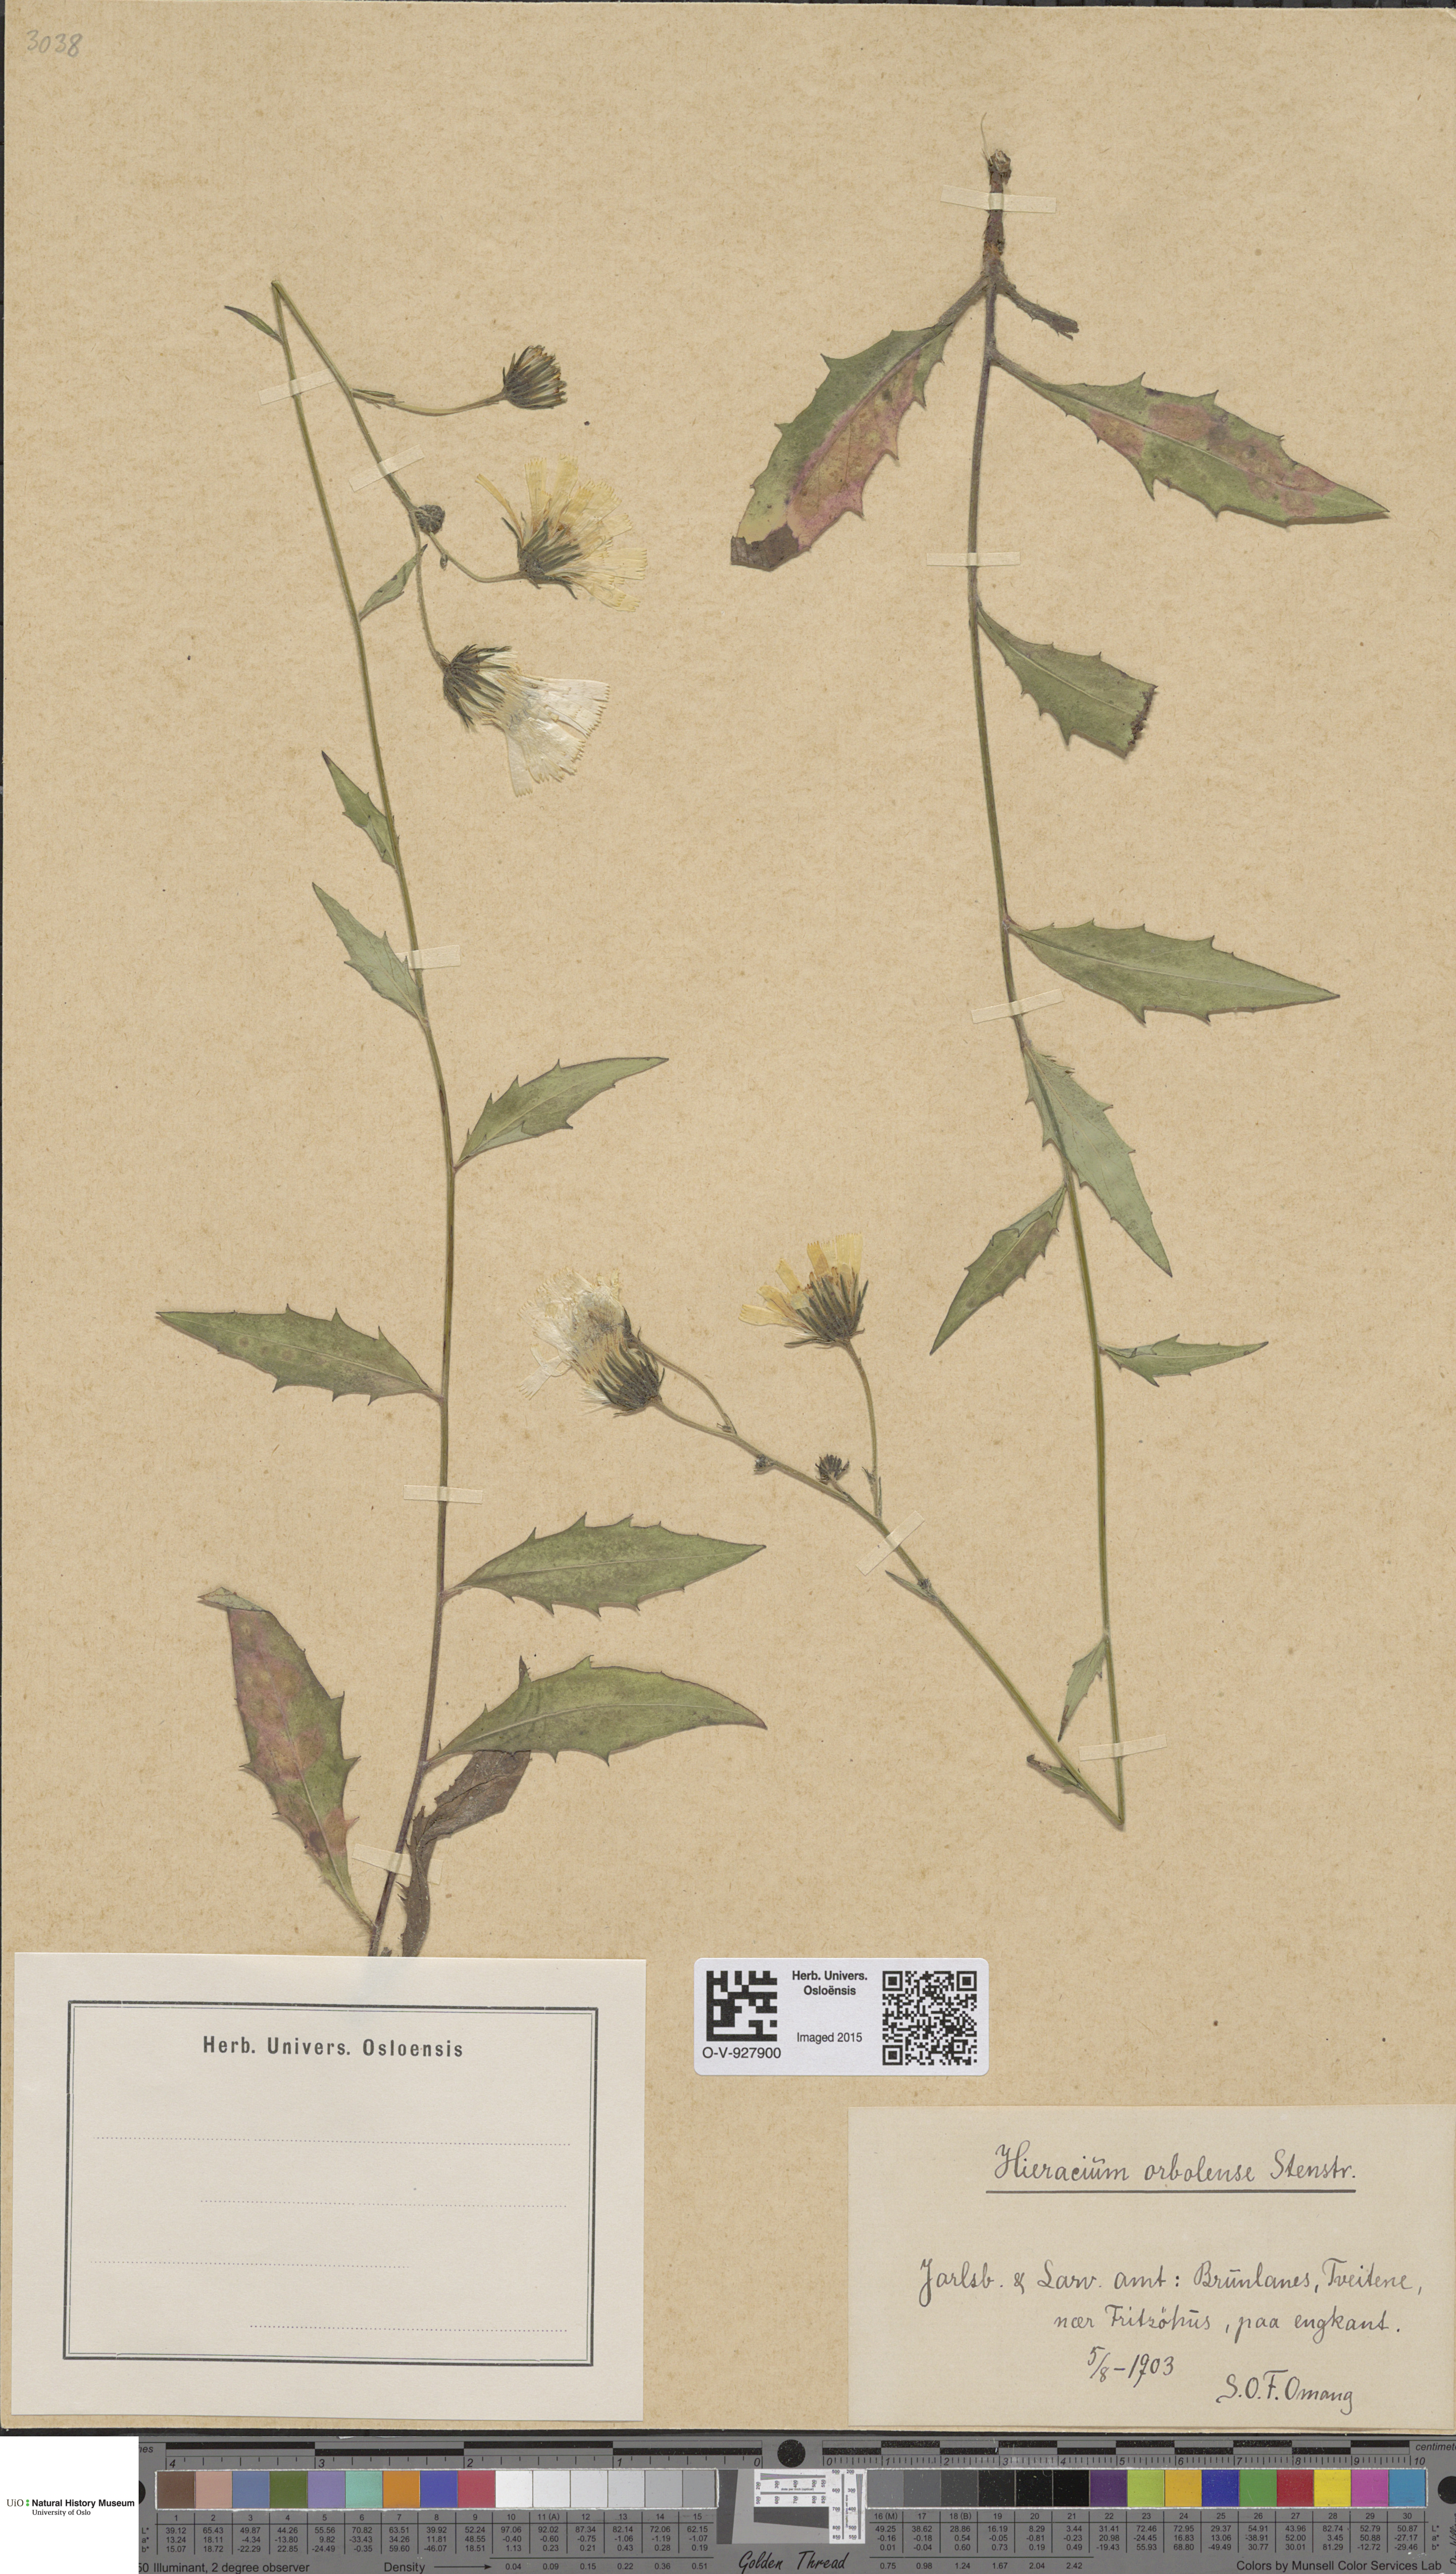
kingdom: Plantae
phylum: Tracheophyta
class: Magnoliopsida
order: Asterales
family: Asteraceae
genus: Hieracium
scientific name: Hieracium orbolense
